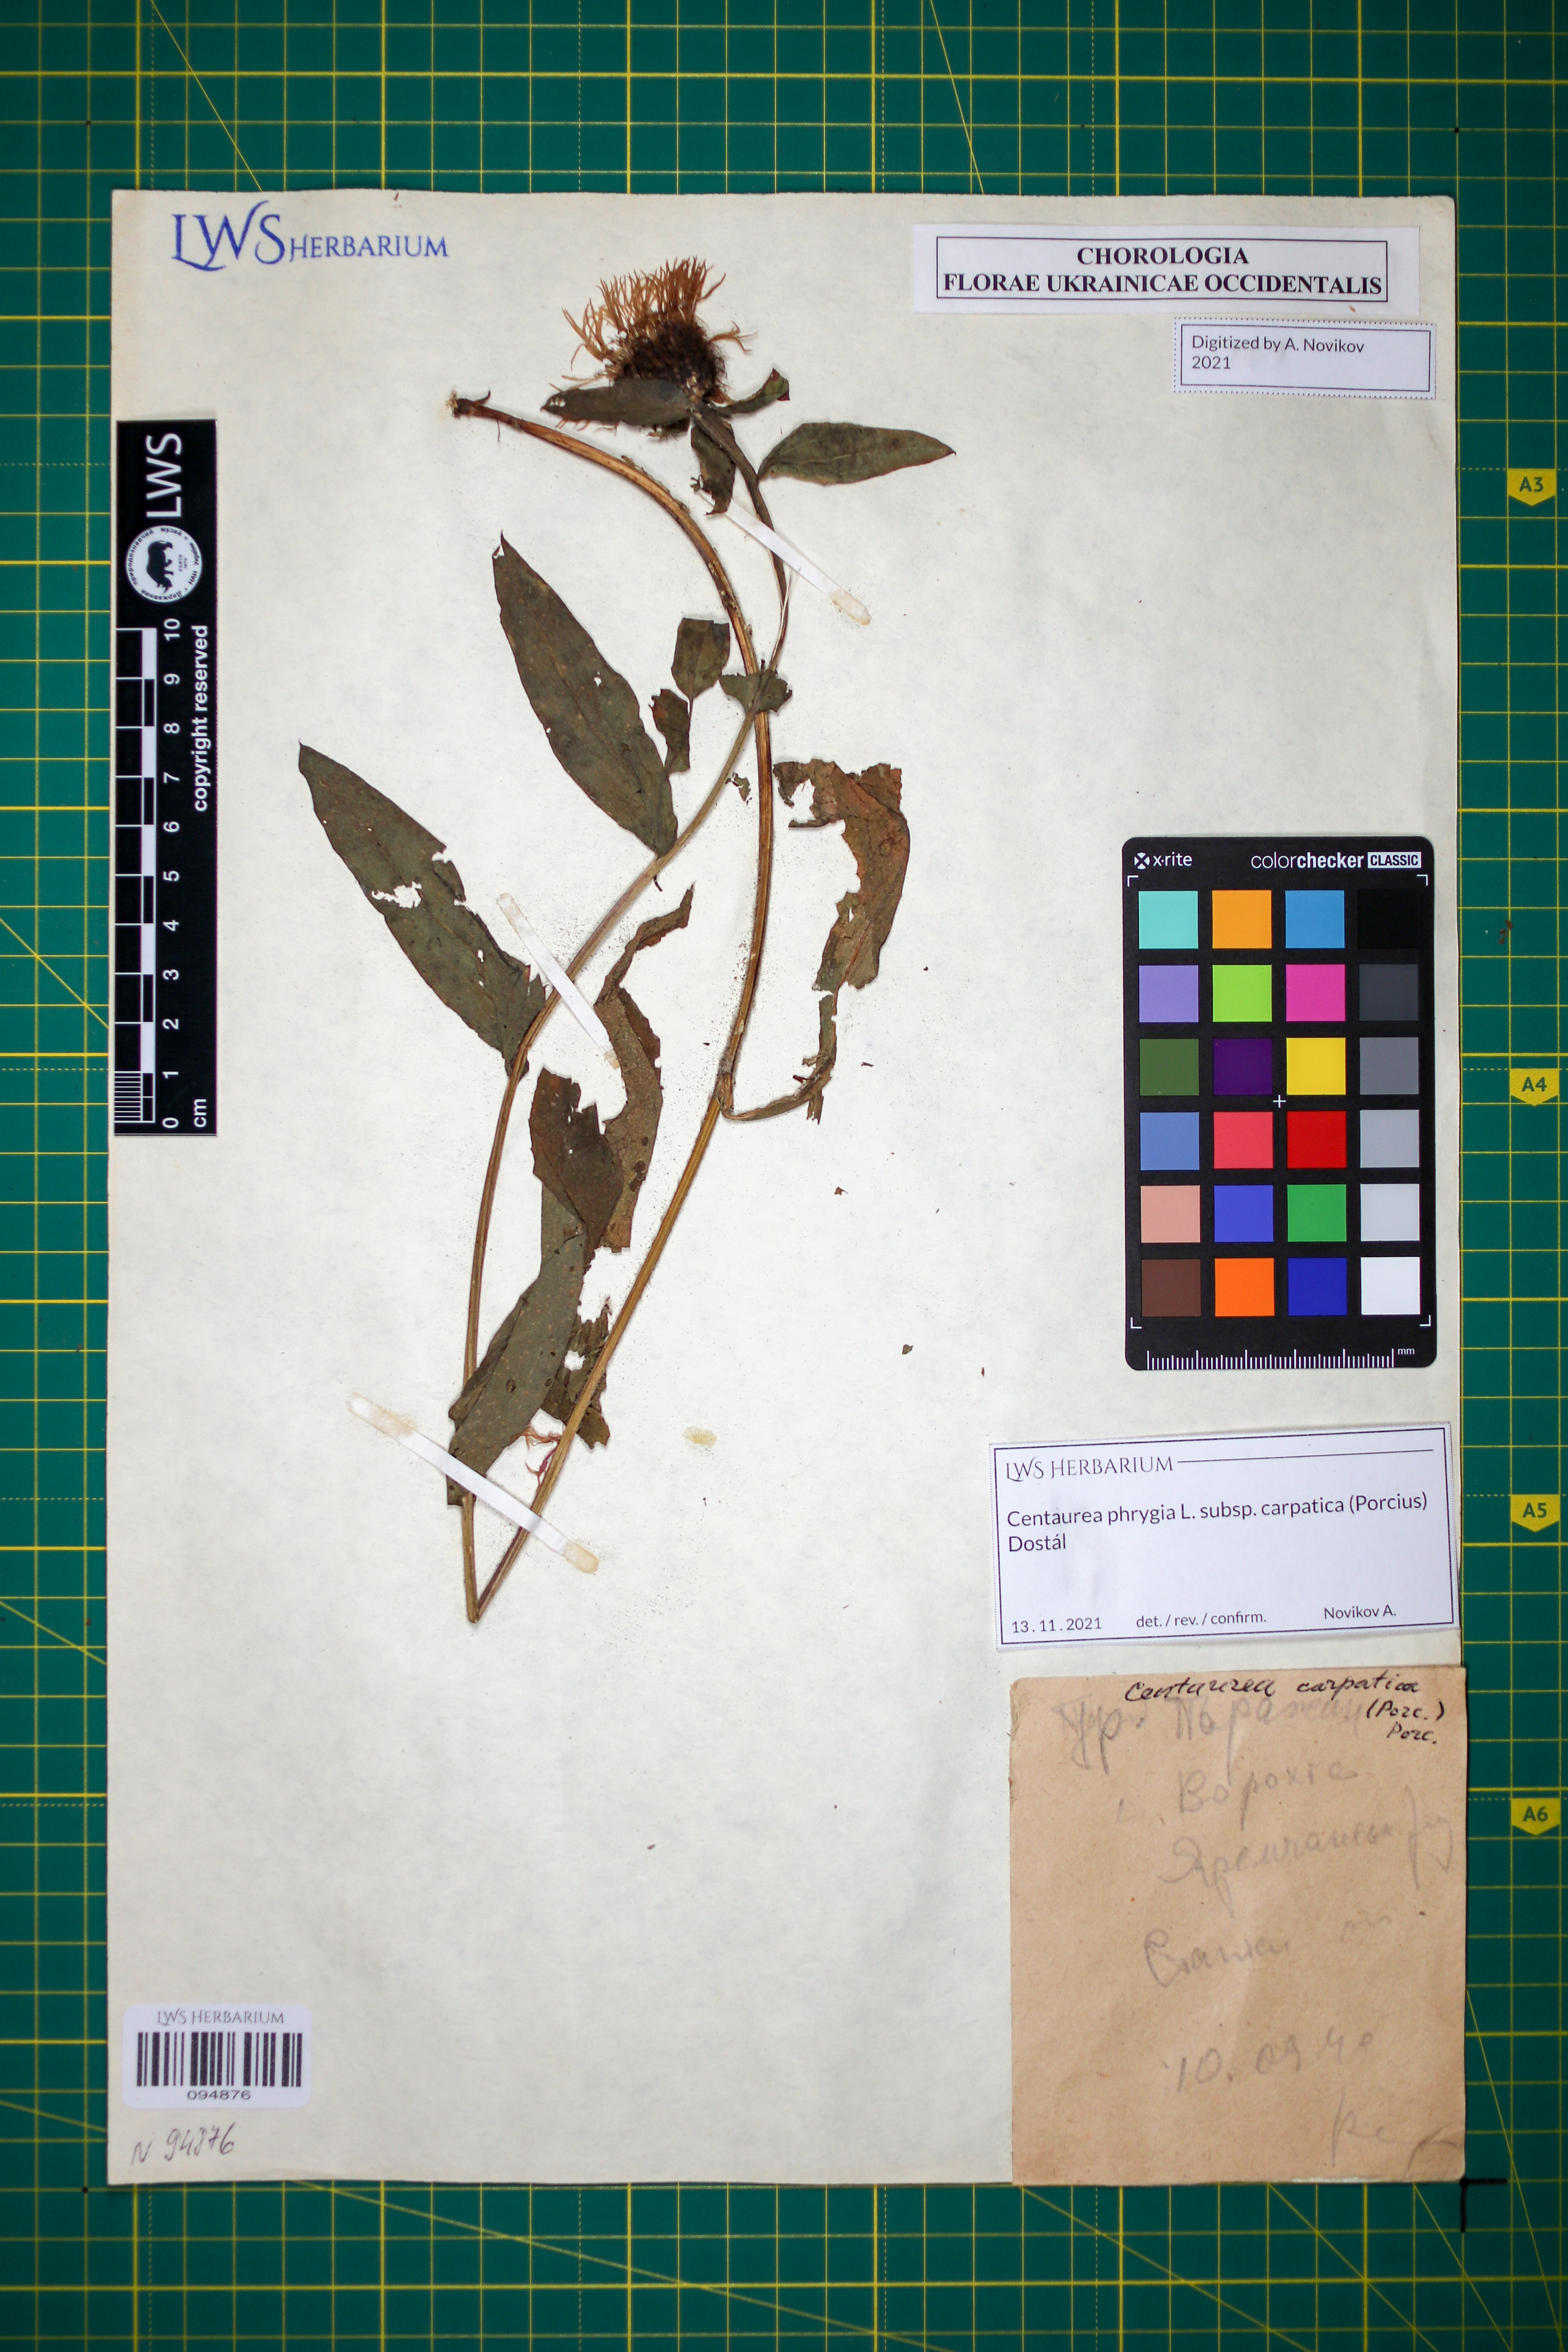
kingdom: Plantae
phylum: Tracheophyta
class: Magnoliopsida
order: Asterales
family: Asteraceae
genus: Centaurea
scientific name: Centaurea phrygia
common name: Wig knapweed
